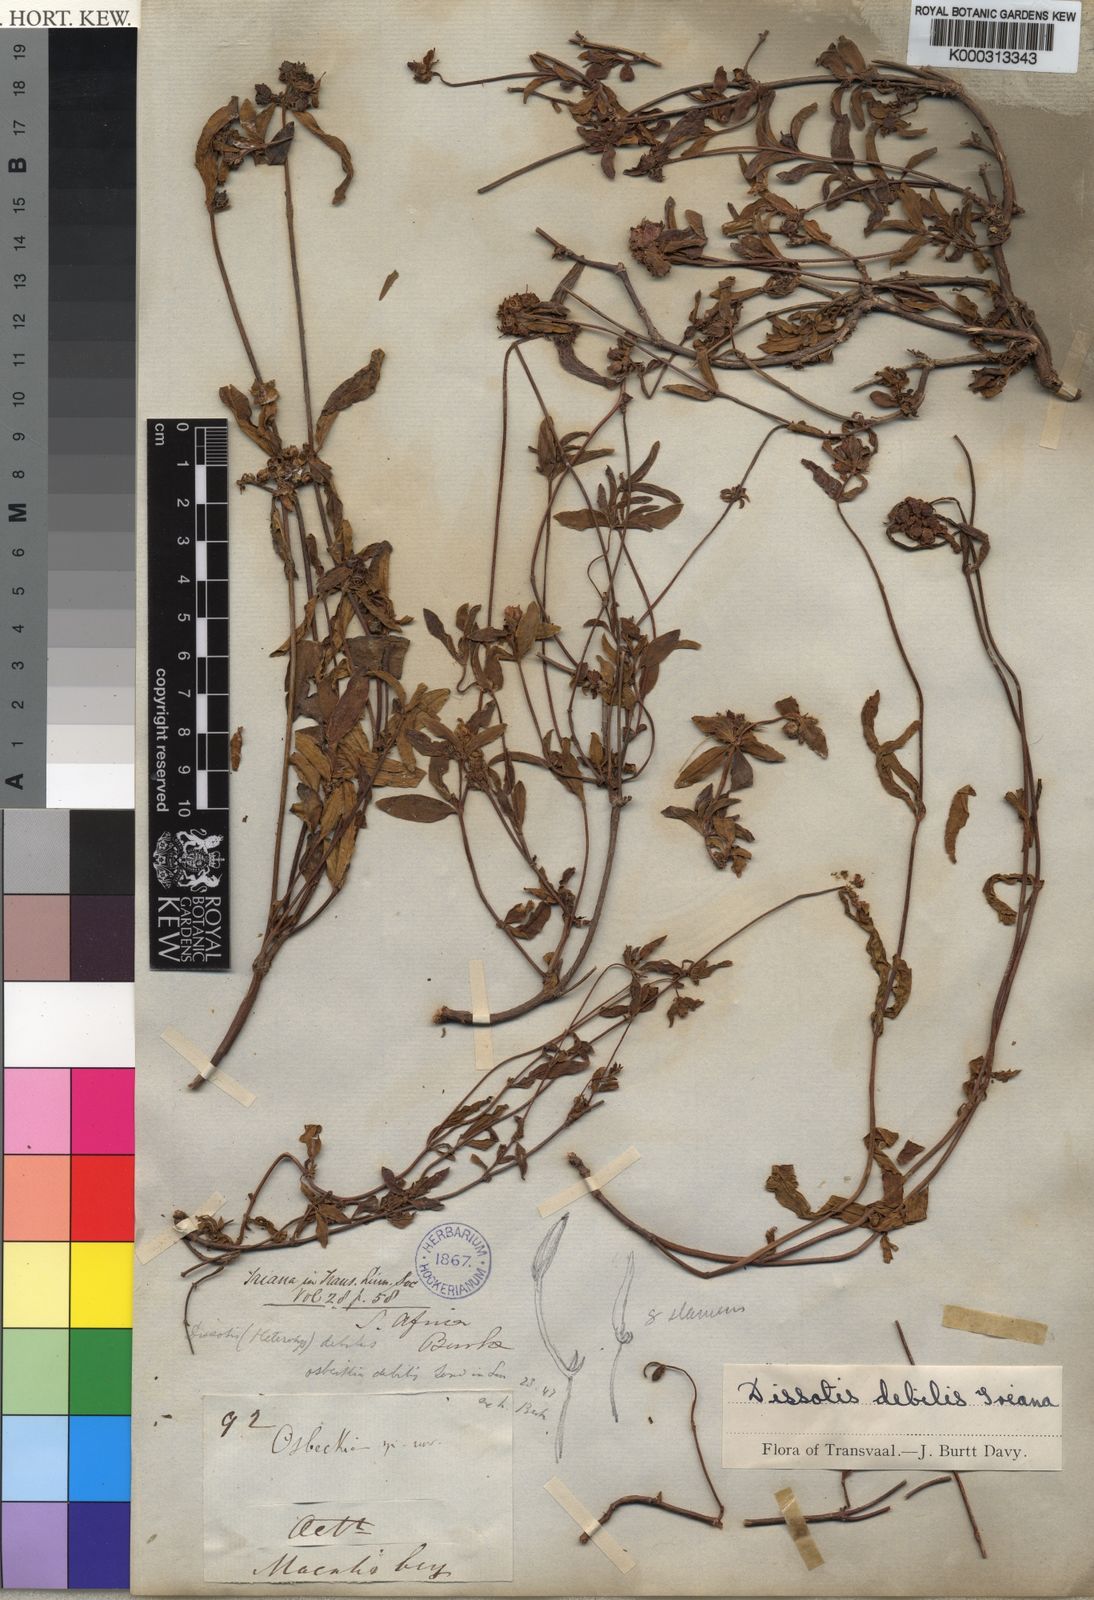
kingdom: Plantae
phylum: Tracheophyta
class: Magnoliopsida
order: Myrtales
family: Melastomataceae
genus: Antherotoma
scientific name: Antherotoma
